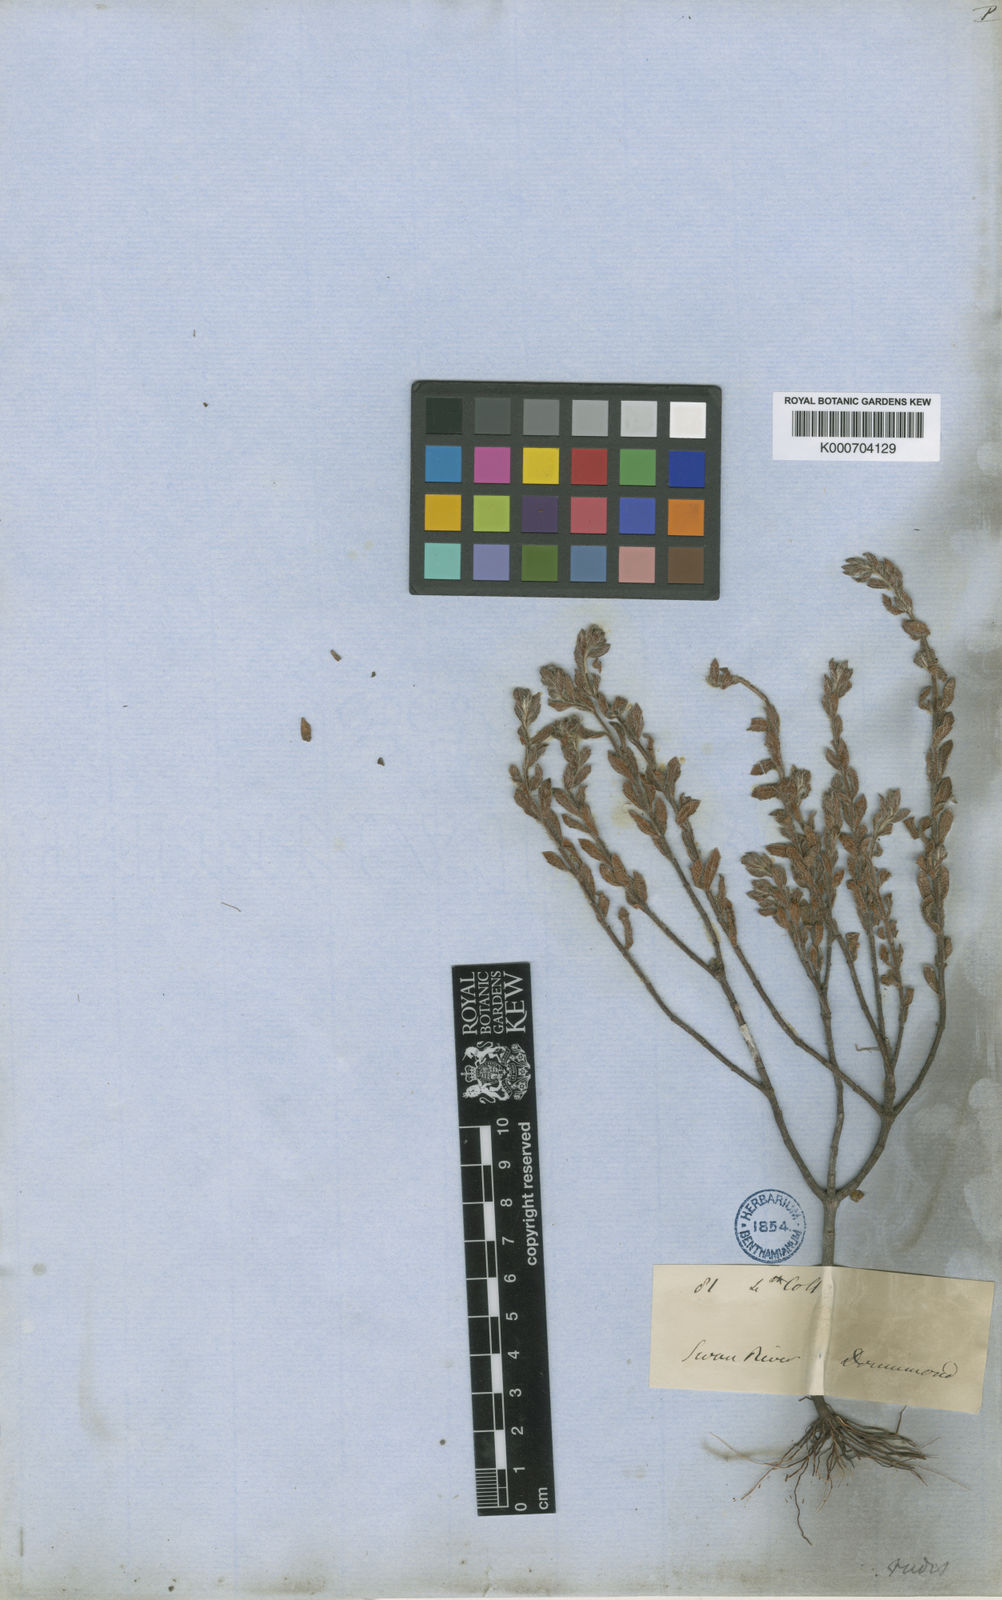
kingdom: Plantae
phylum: Tracheophyta
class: Magnoliopsida
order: Saxifragales
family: Haloragaceae
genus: Gonocarpus
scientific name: Gonocarpus rudis
